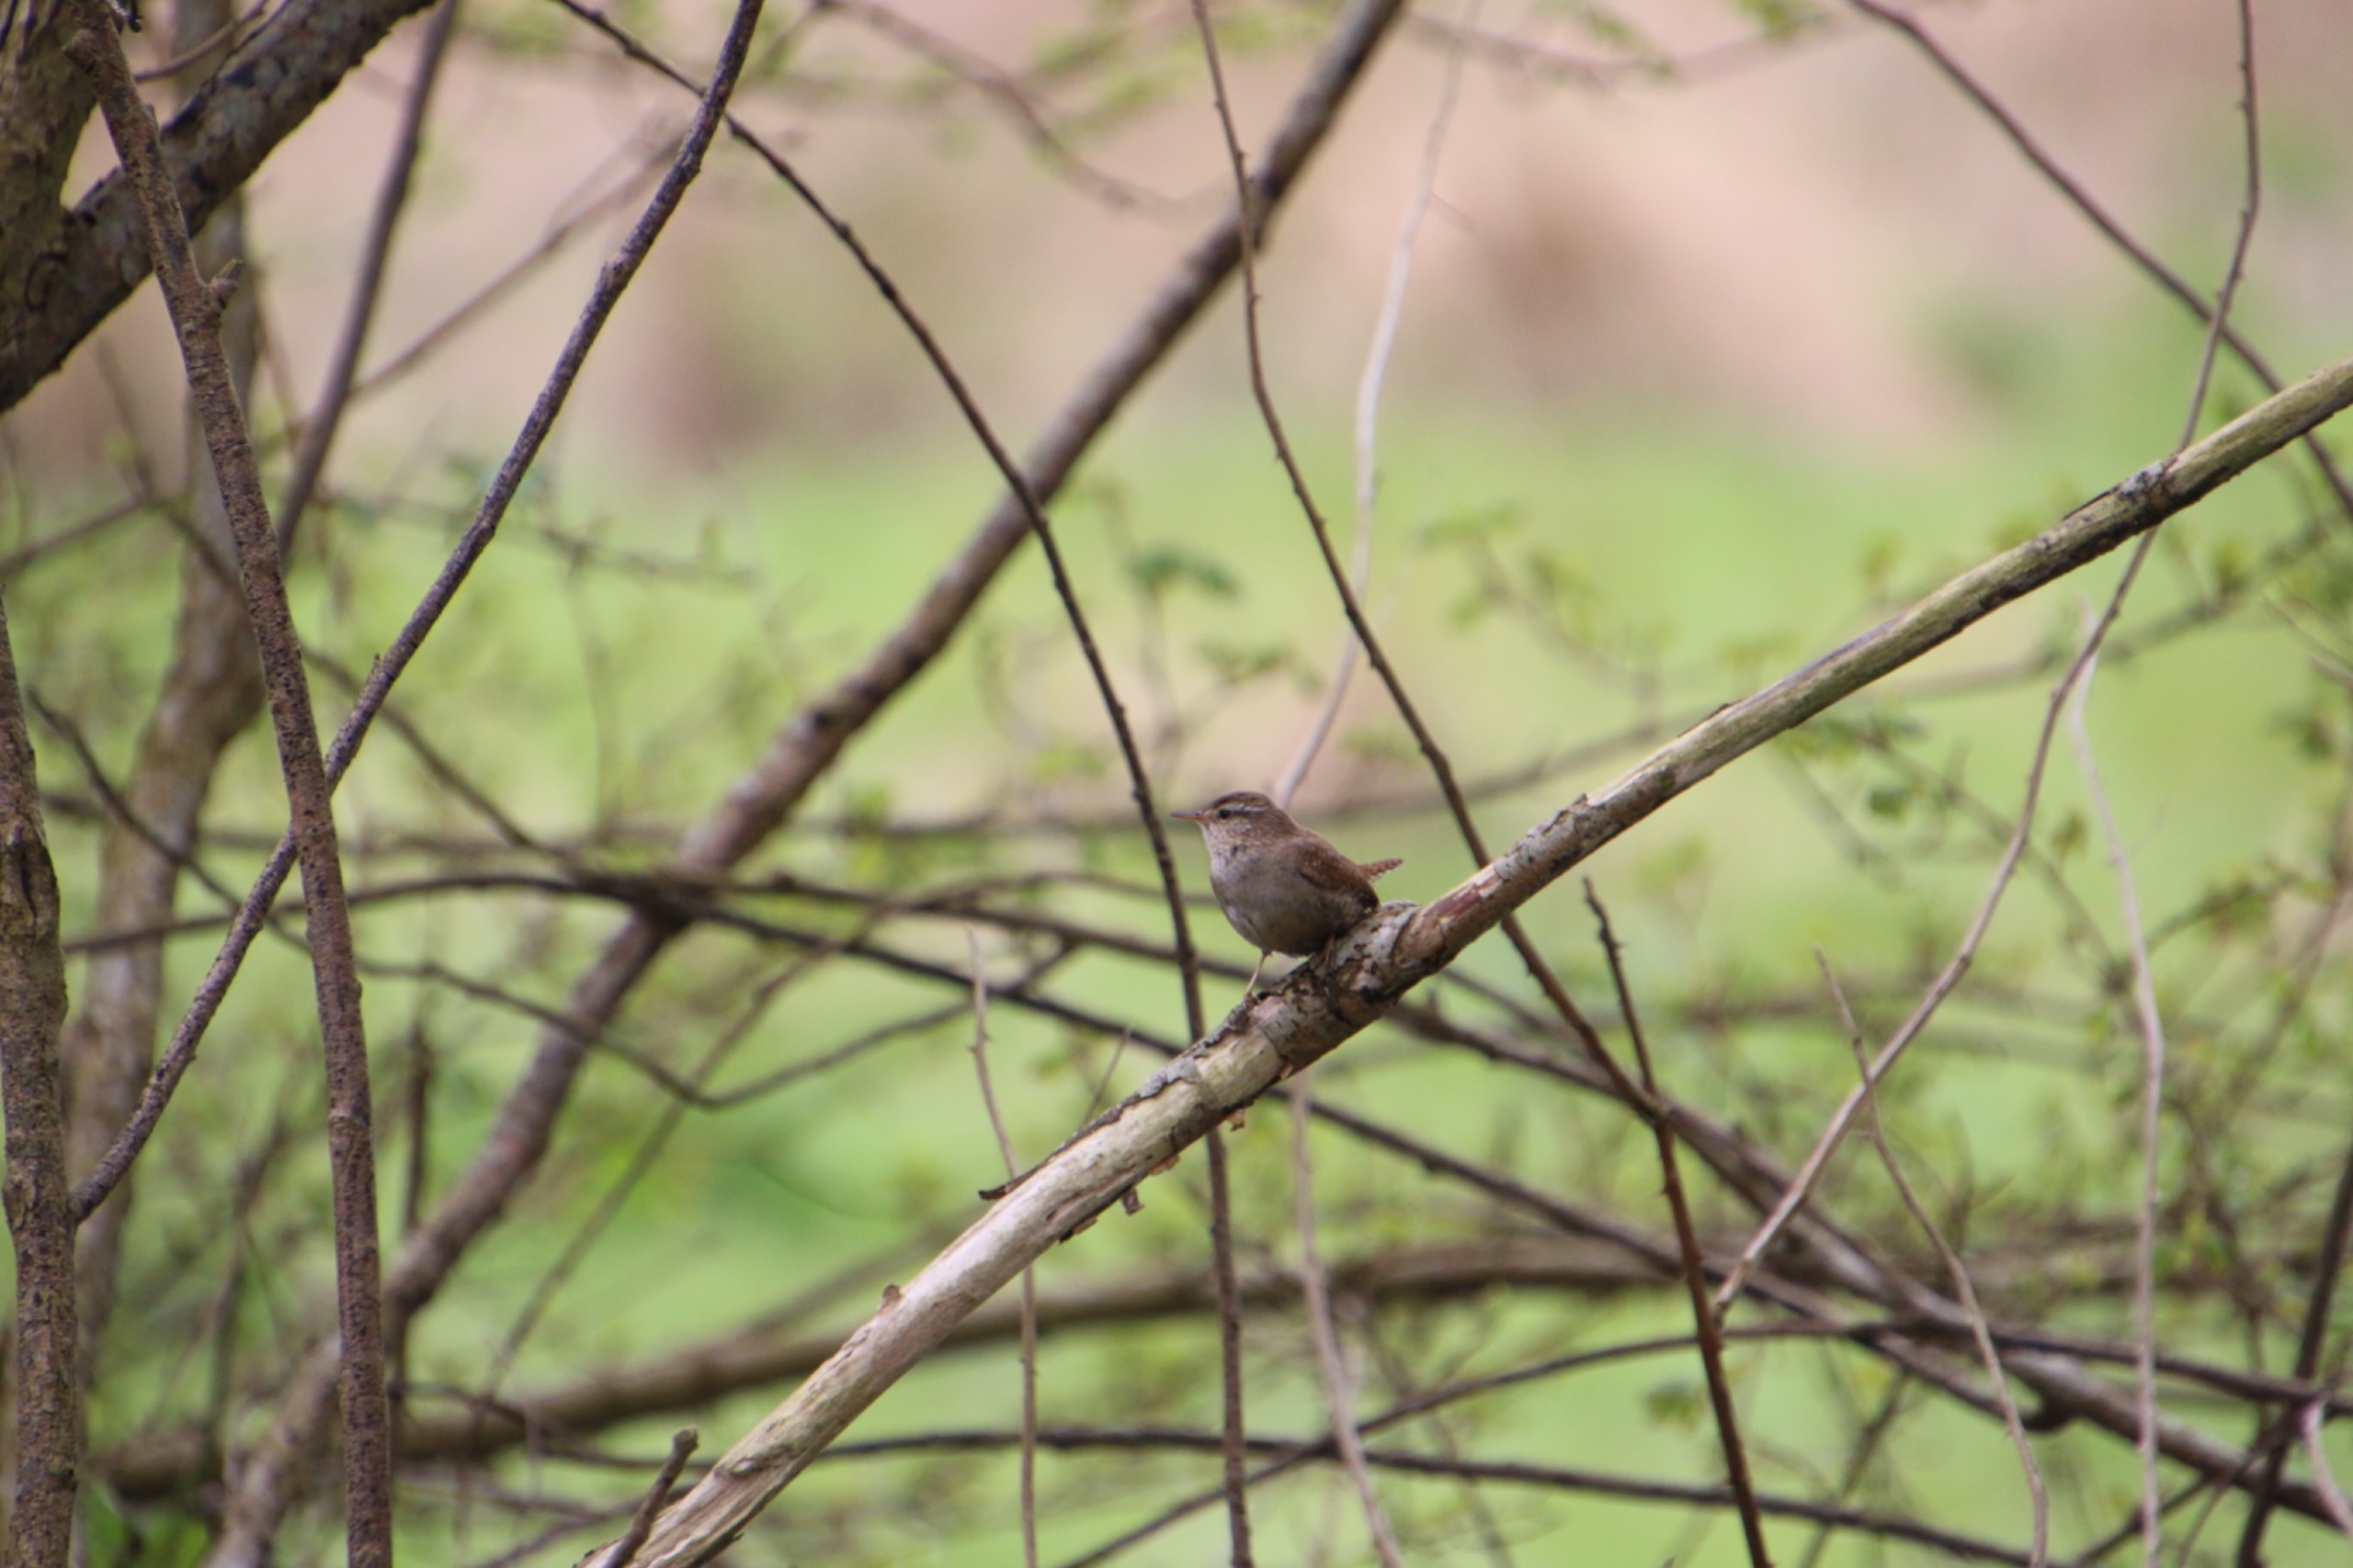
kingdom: Animalia
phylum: Chordata
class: Aves
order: Passeriformes
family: Troglodytidae
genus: Troglodytes
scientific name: Troglodytes troglodytes
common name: Gærdesmutte
